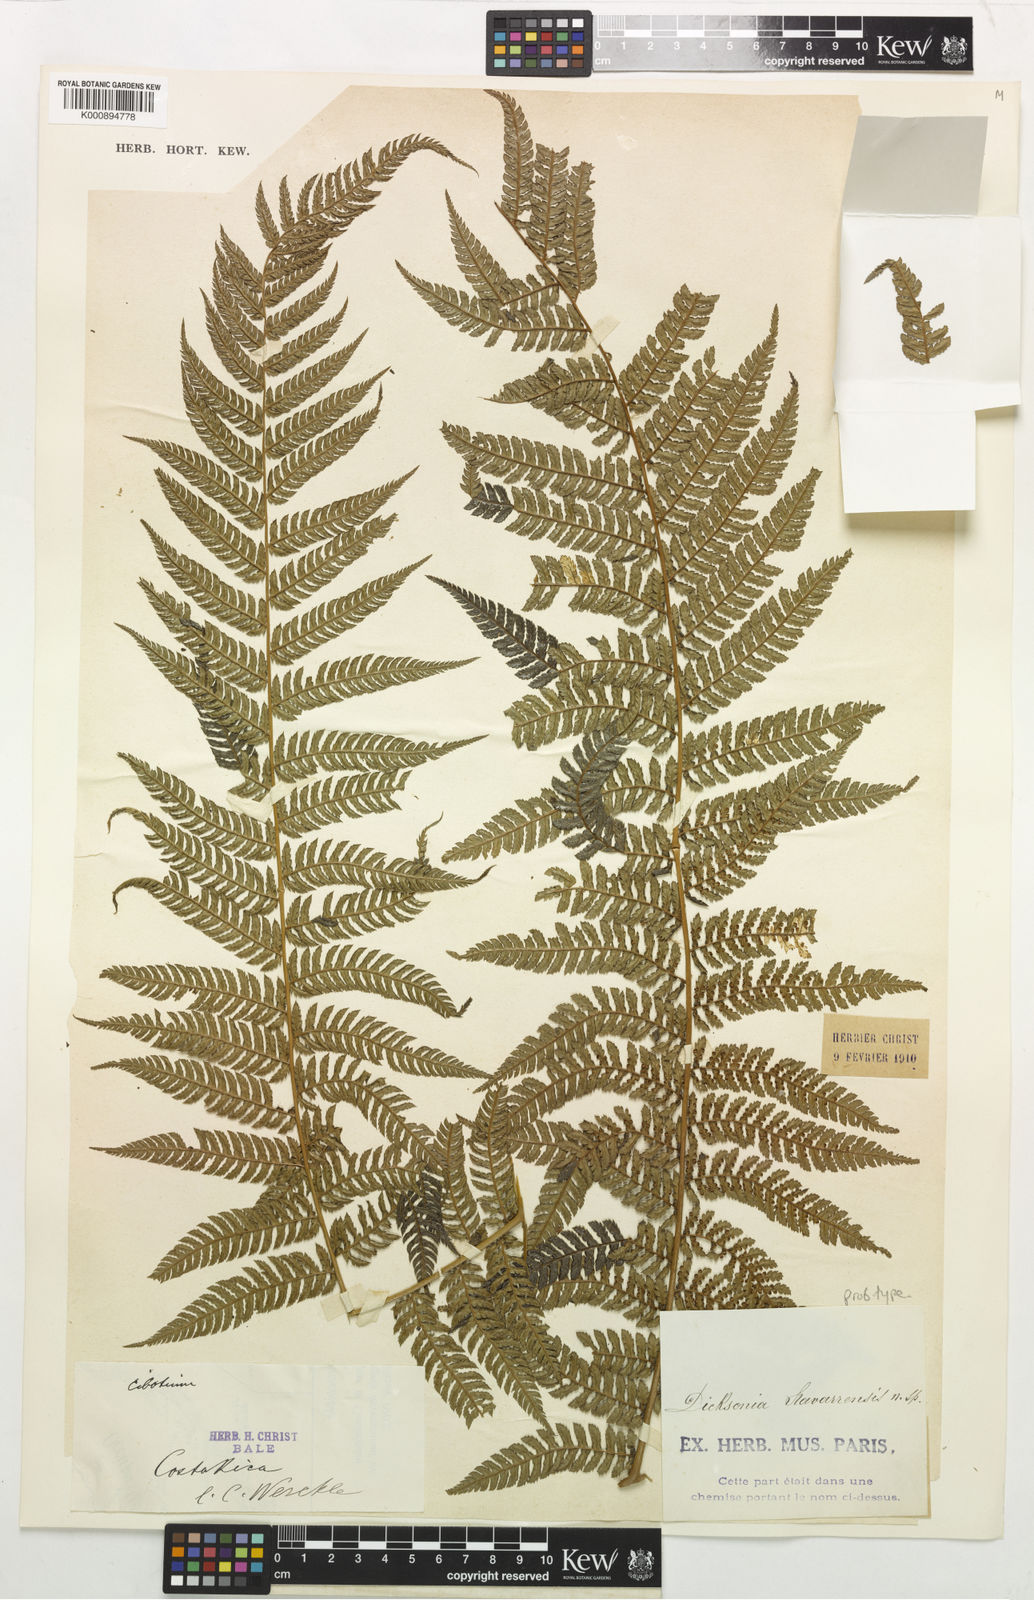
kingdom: Plantae
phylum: Tracheophyta
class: Polypodiopsida
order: Cyatheales
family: Dicksoniaceae
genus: Dicksonia
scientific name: Dicksonia sellowiana
